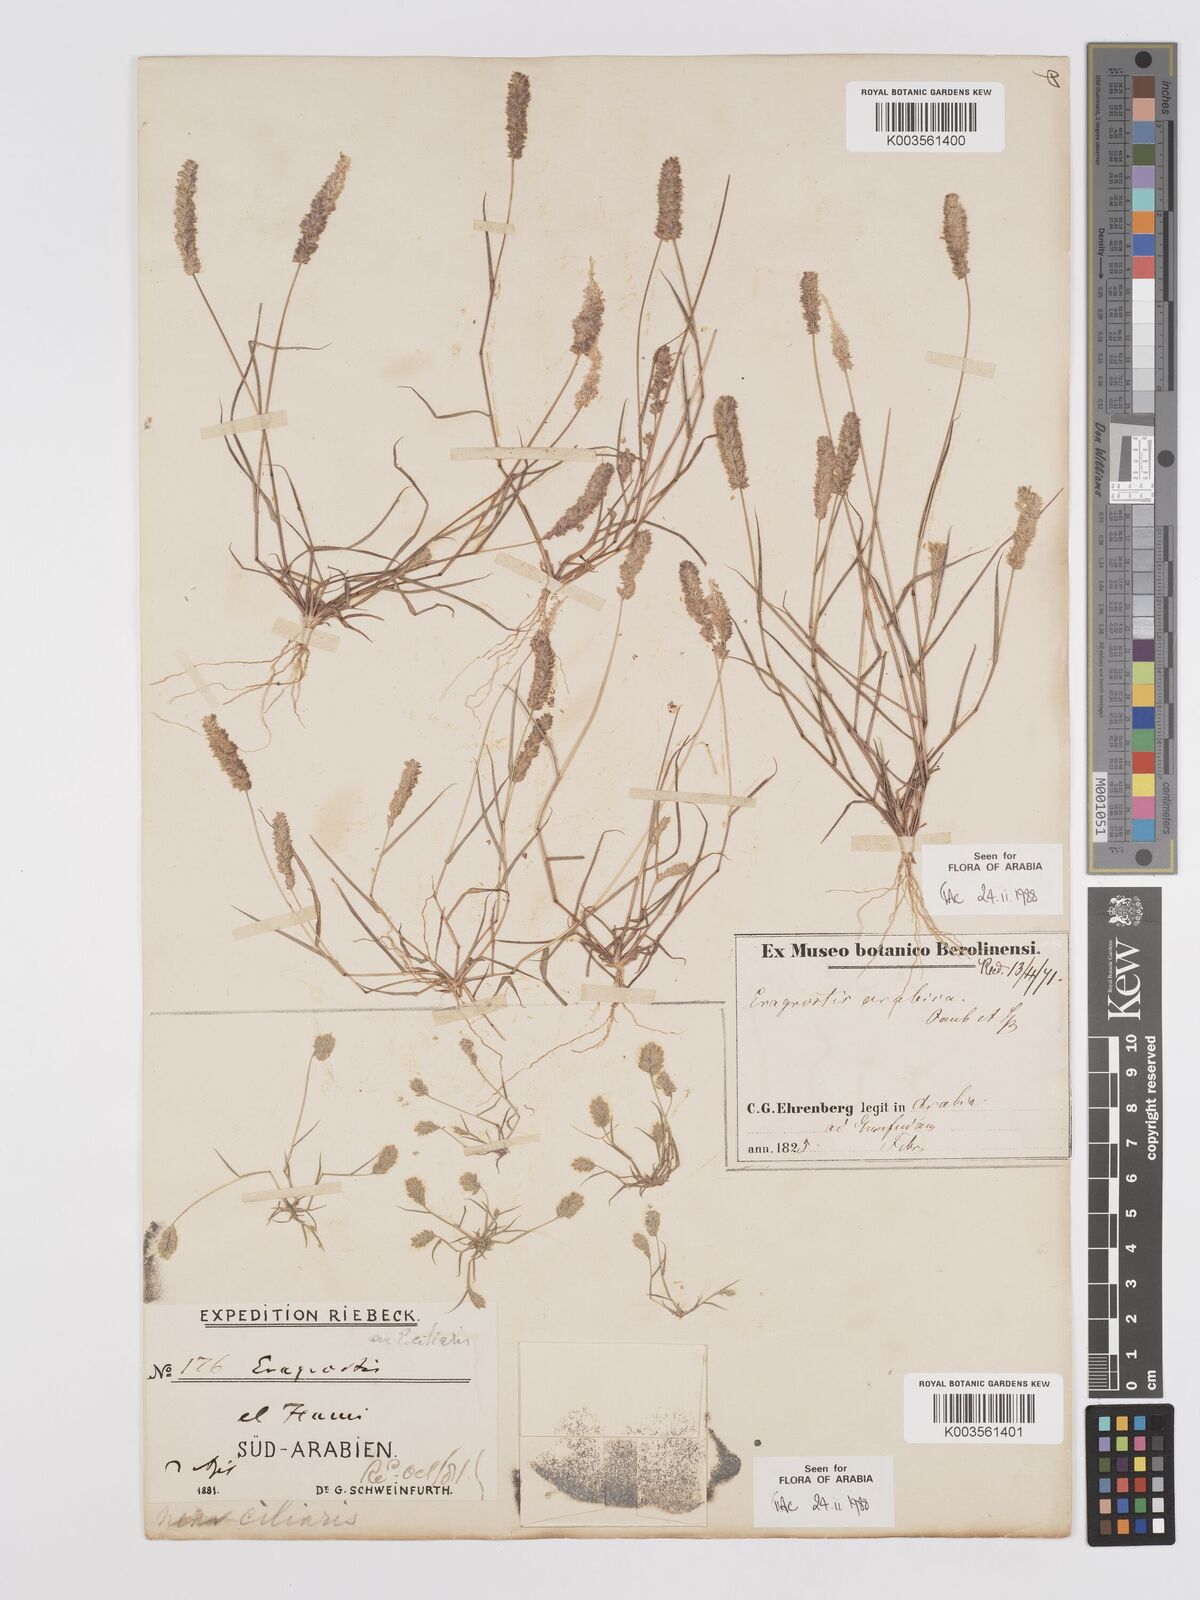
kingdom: Plantae
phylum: Tracheophyta
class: Liliopsida
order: Poales
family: Poaceae
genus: Eragrostis
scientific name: Eragrostis ciliaris
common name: Gophertail lovegrass
